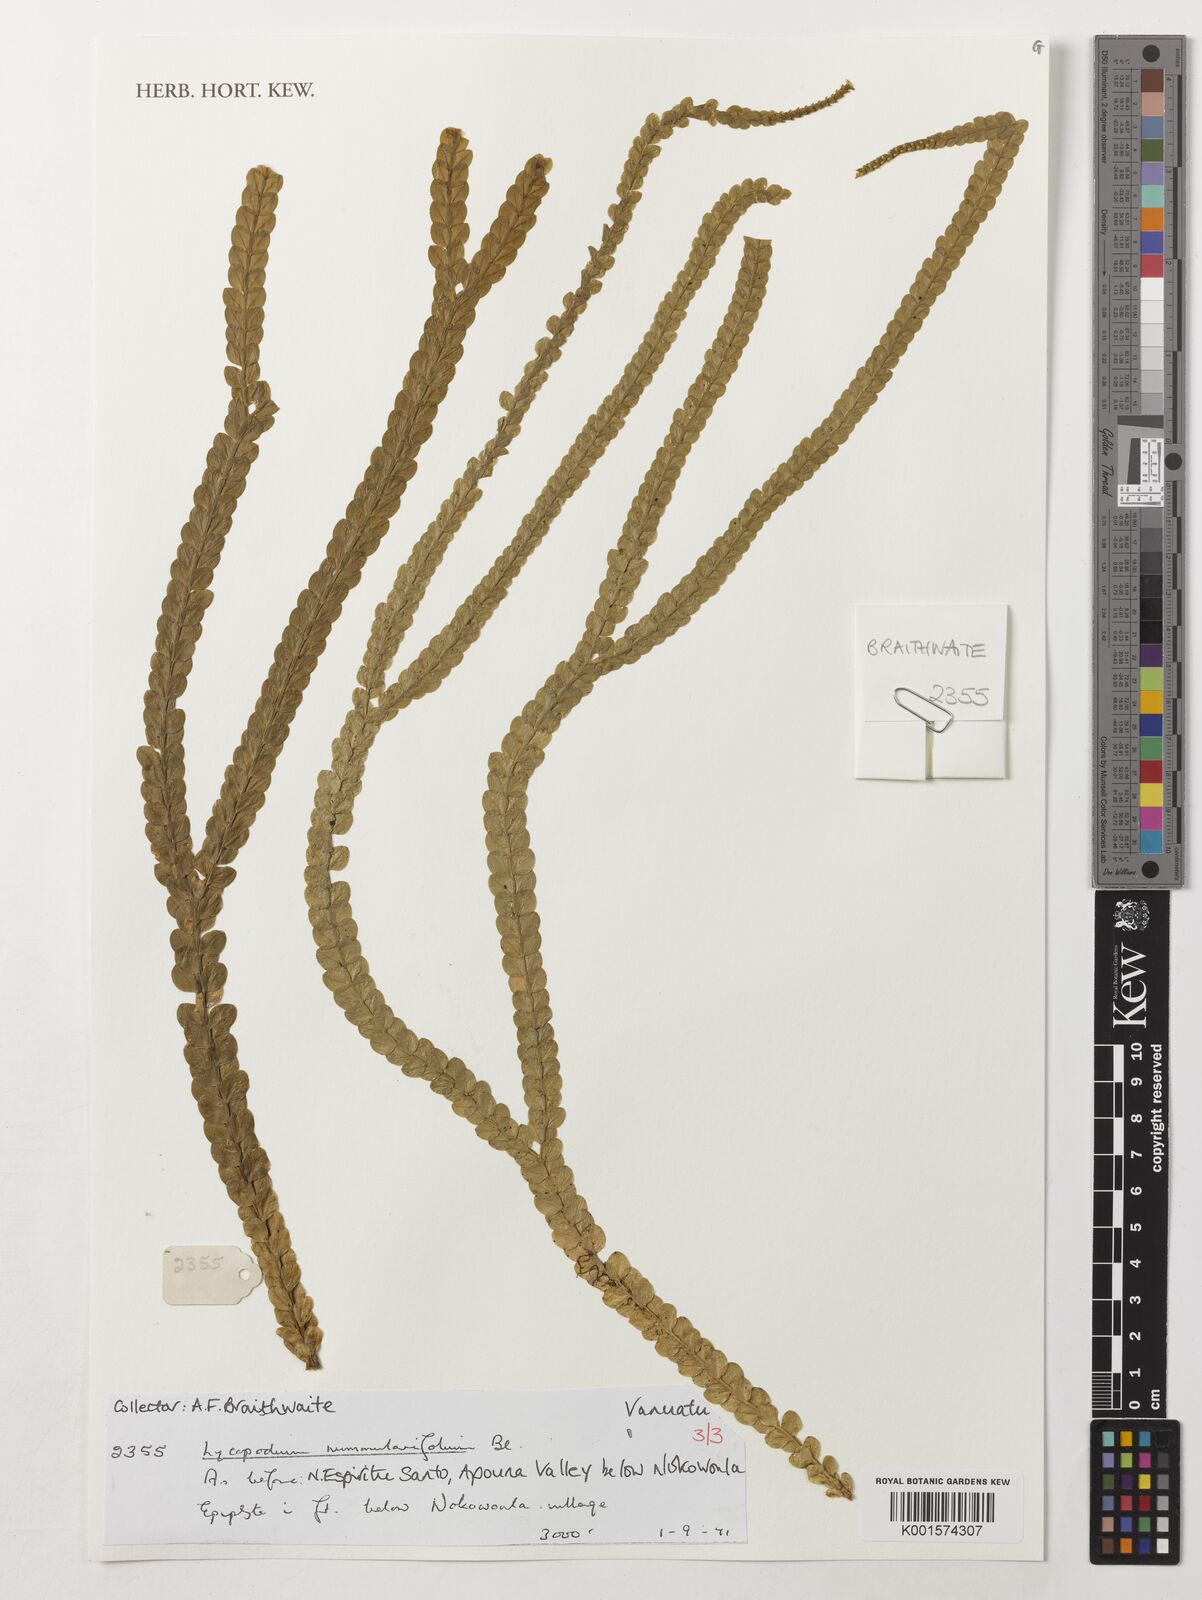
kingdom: Plantae
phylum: Tracheophyta
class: Lycopodiopsida
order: Lycopodiales
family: Lycopodiaceae
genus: Phlegmariurus
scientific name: Phlegmariurus nummulariifolius
